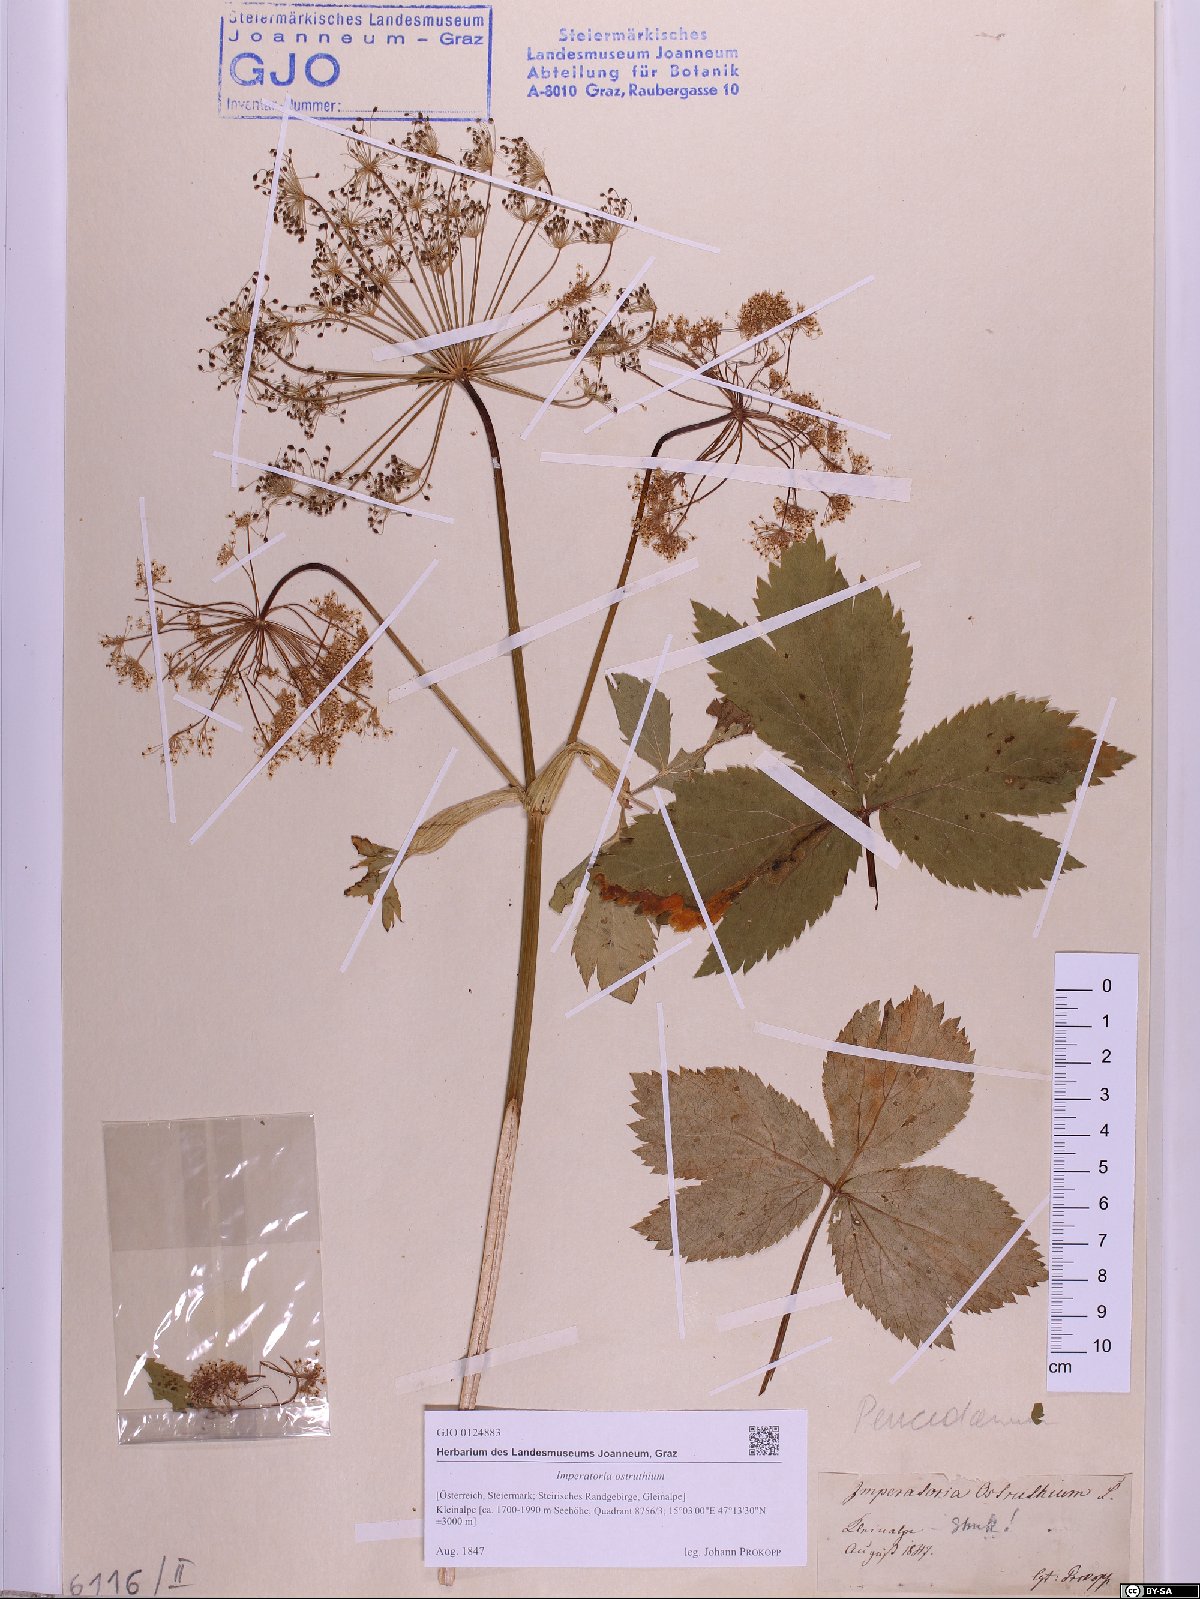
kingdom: Plantae
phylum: Tracheophyta
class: Magnoliopsida
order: Apiales
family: Apiaceae
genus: Imperatoria
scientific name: Imperatoria ostruthium
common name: Masterwort
